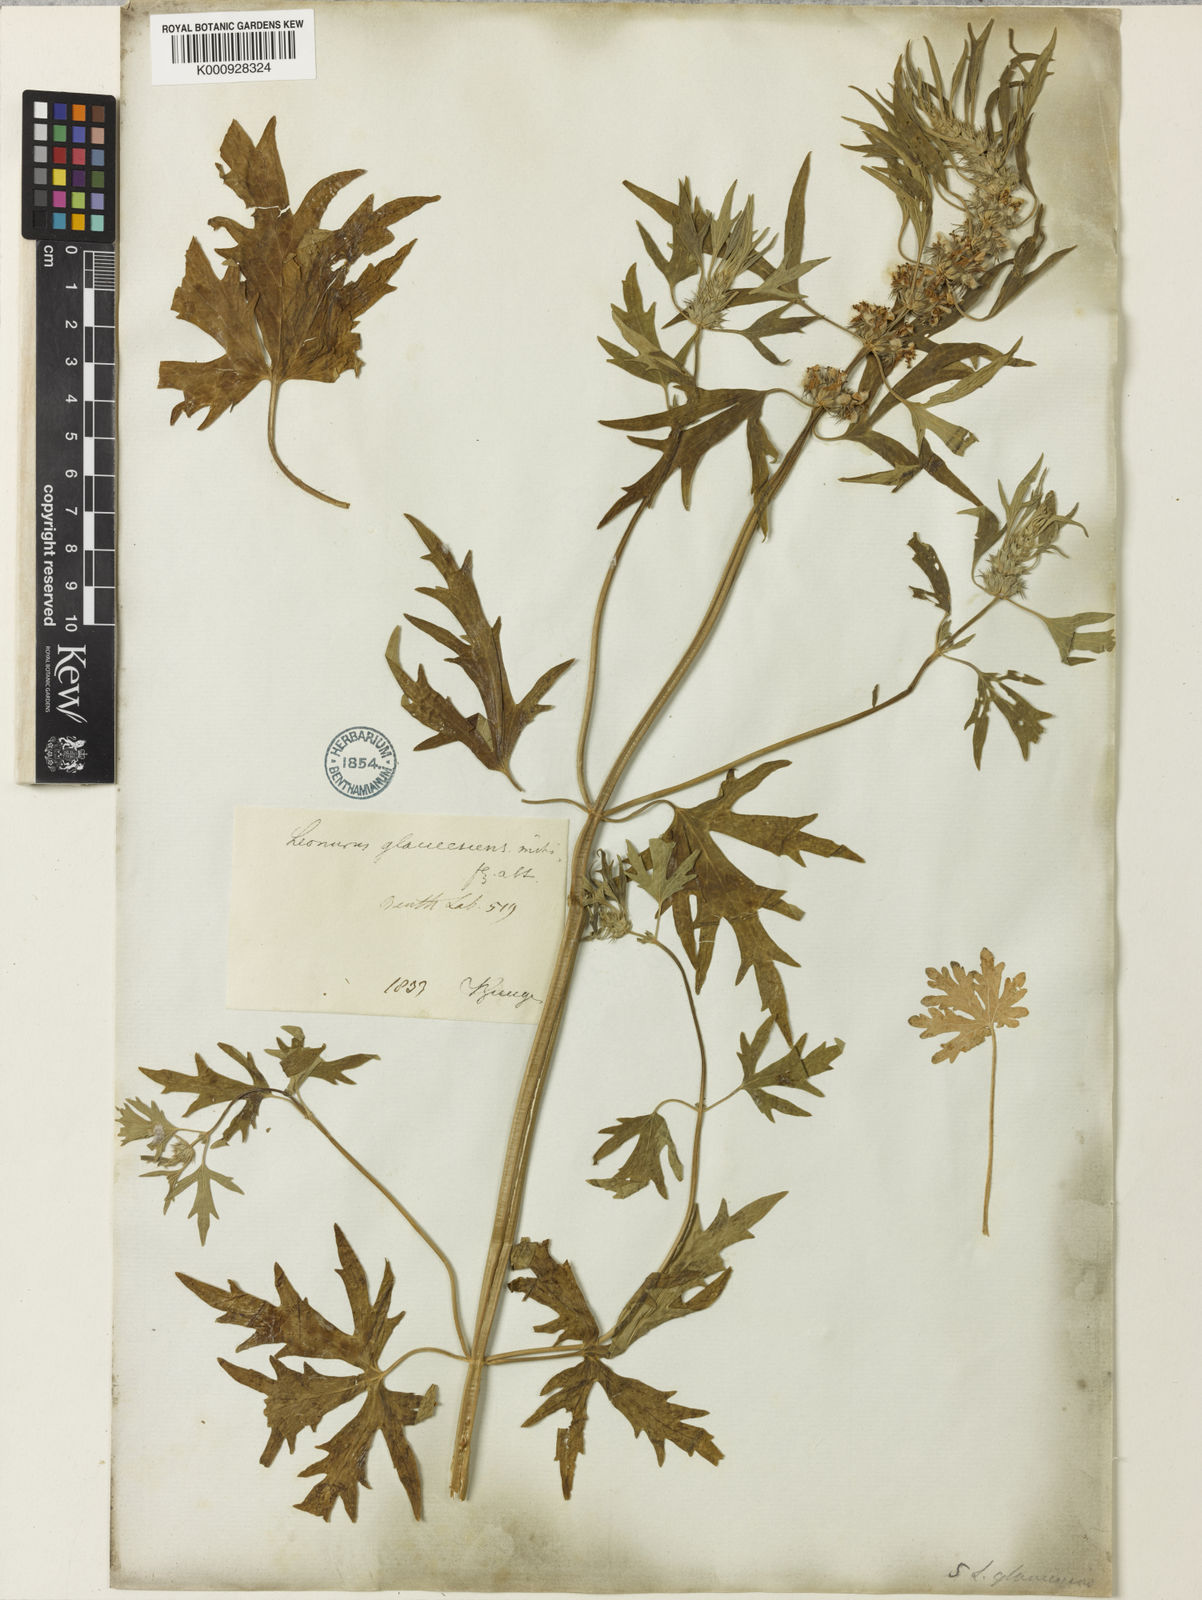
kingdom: Plantae
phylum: Tracheophyta
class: Magnoliopsida
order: Lamiales
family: Lamiaceae
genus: Leonurus
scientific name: Leonurus glaucescens
